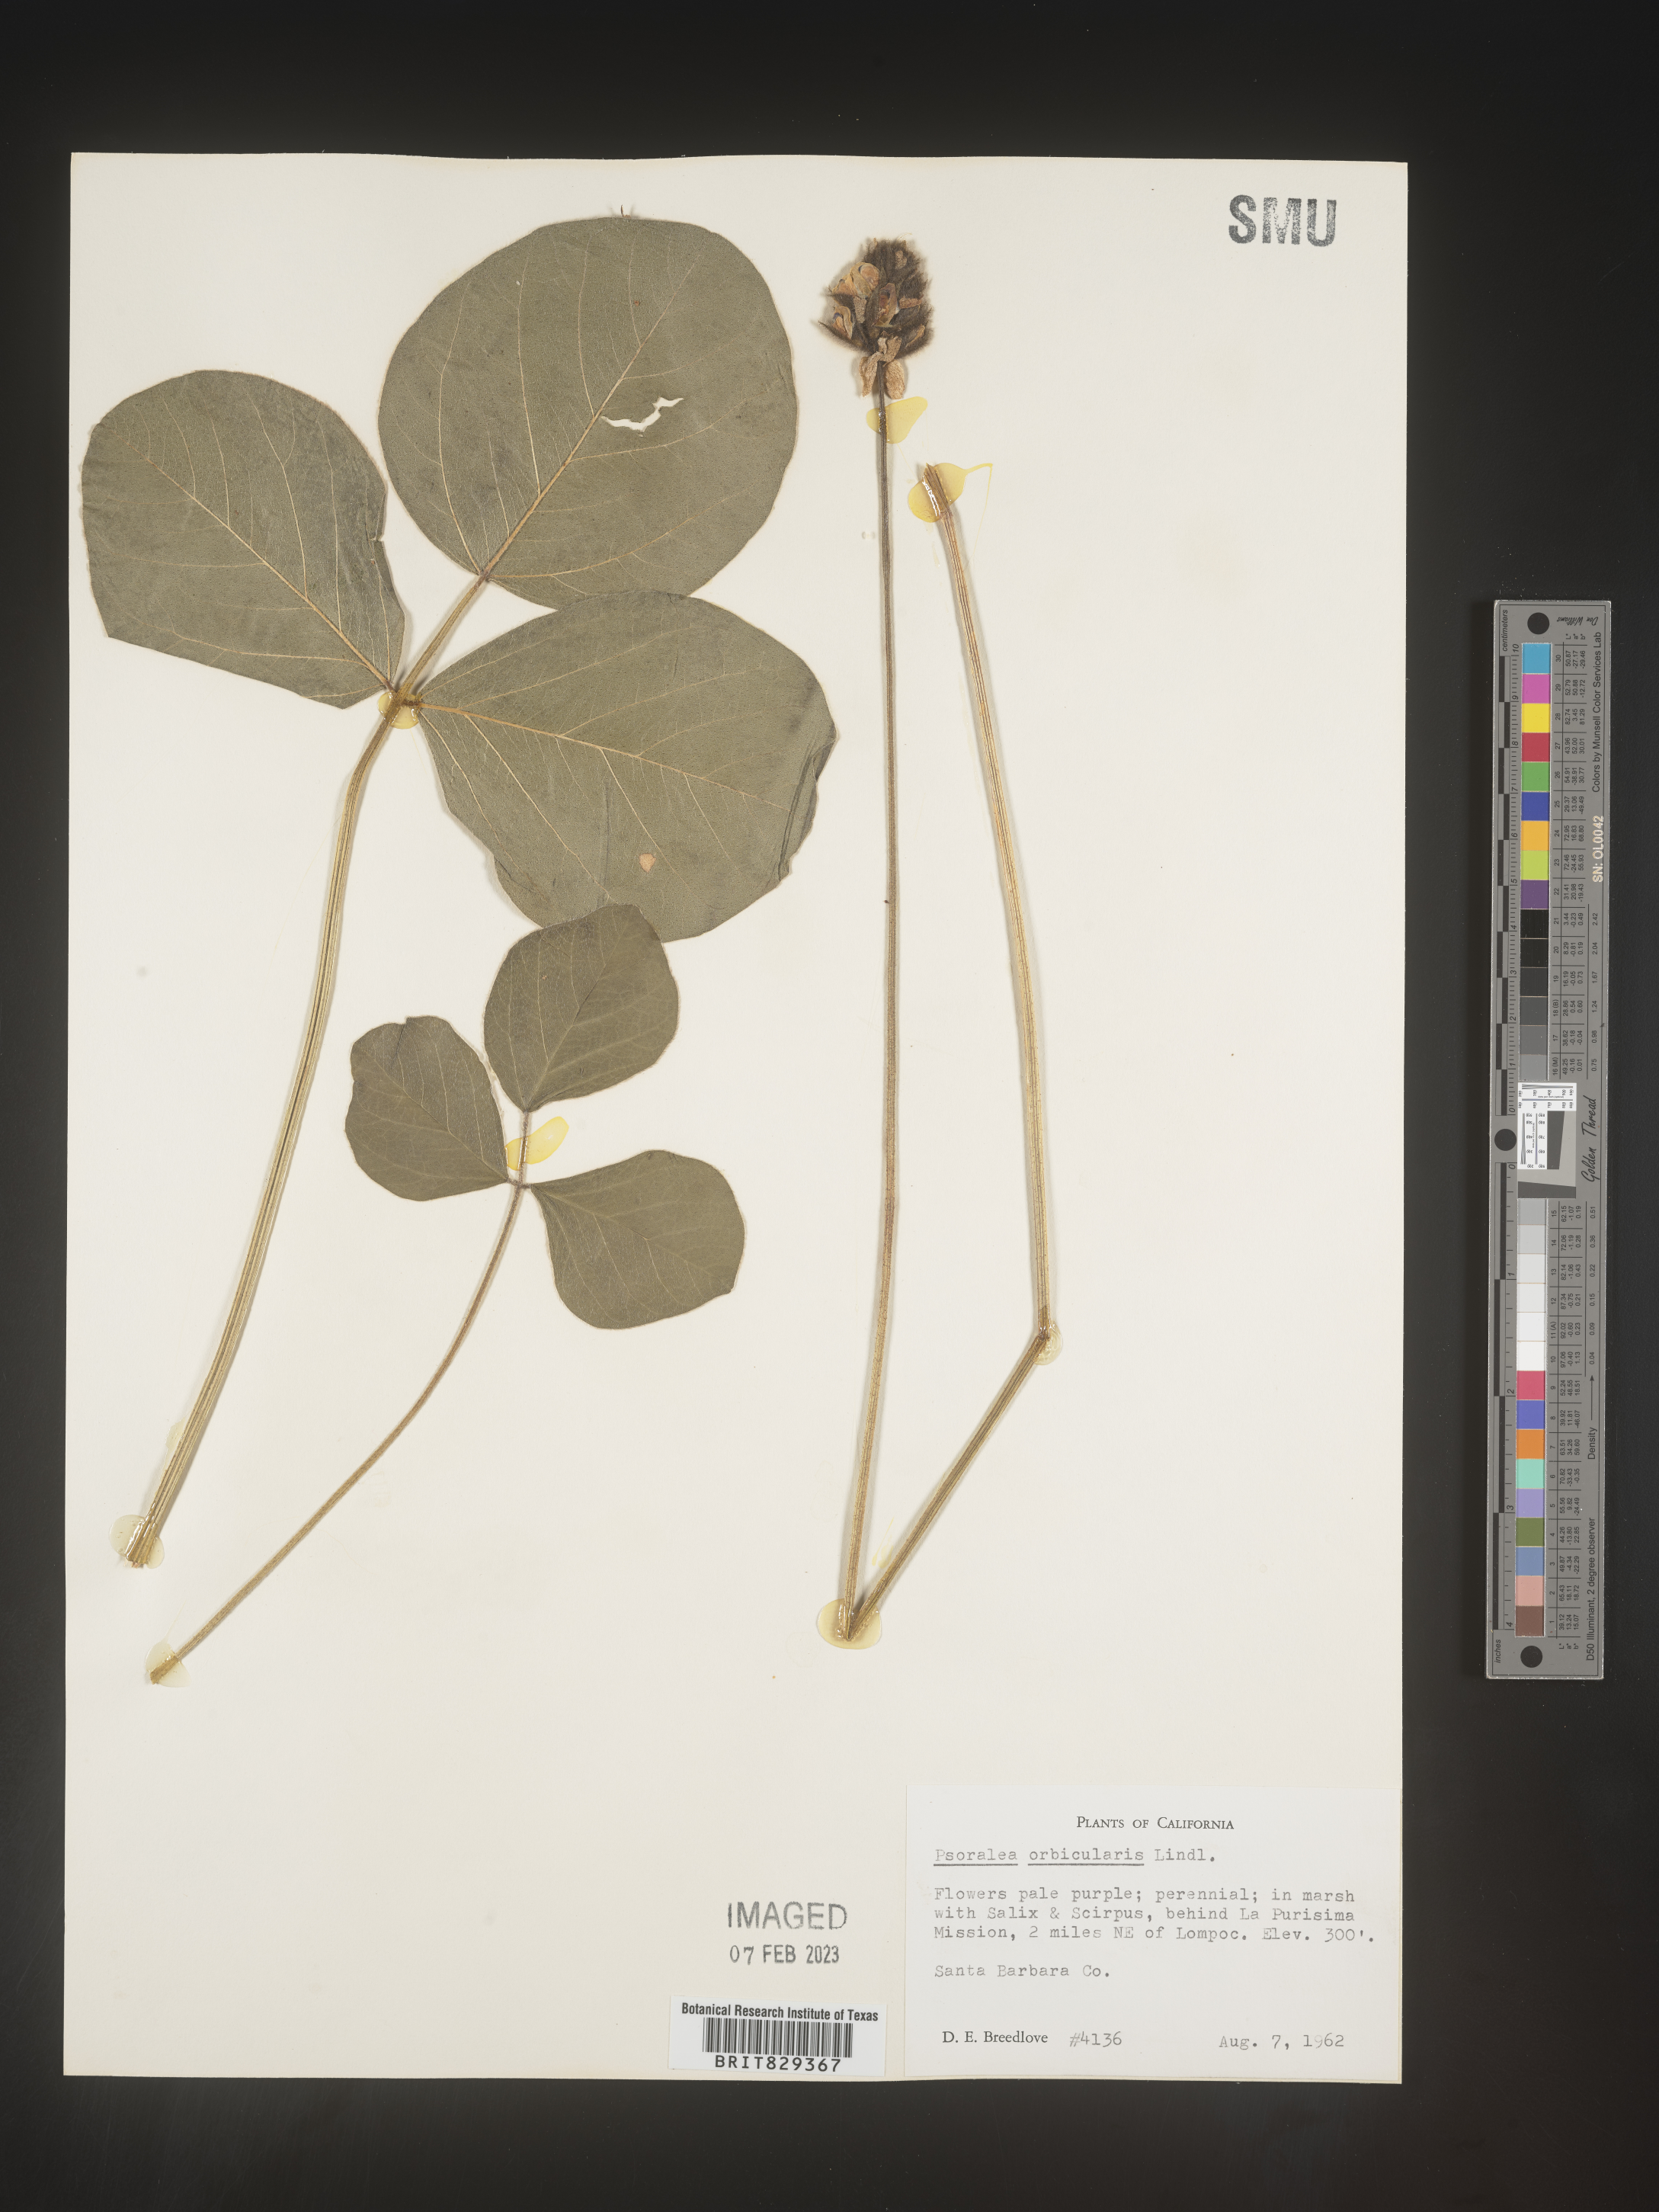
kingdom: Plantae
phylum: Tracheophyta
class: Magnoliopsida
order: Fabales
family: Fabaceae
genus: Psoralea
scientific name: Psoralea
